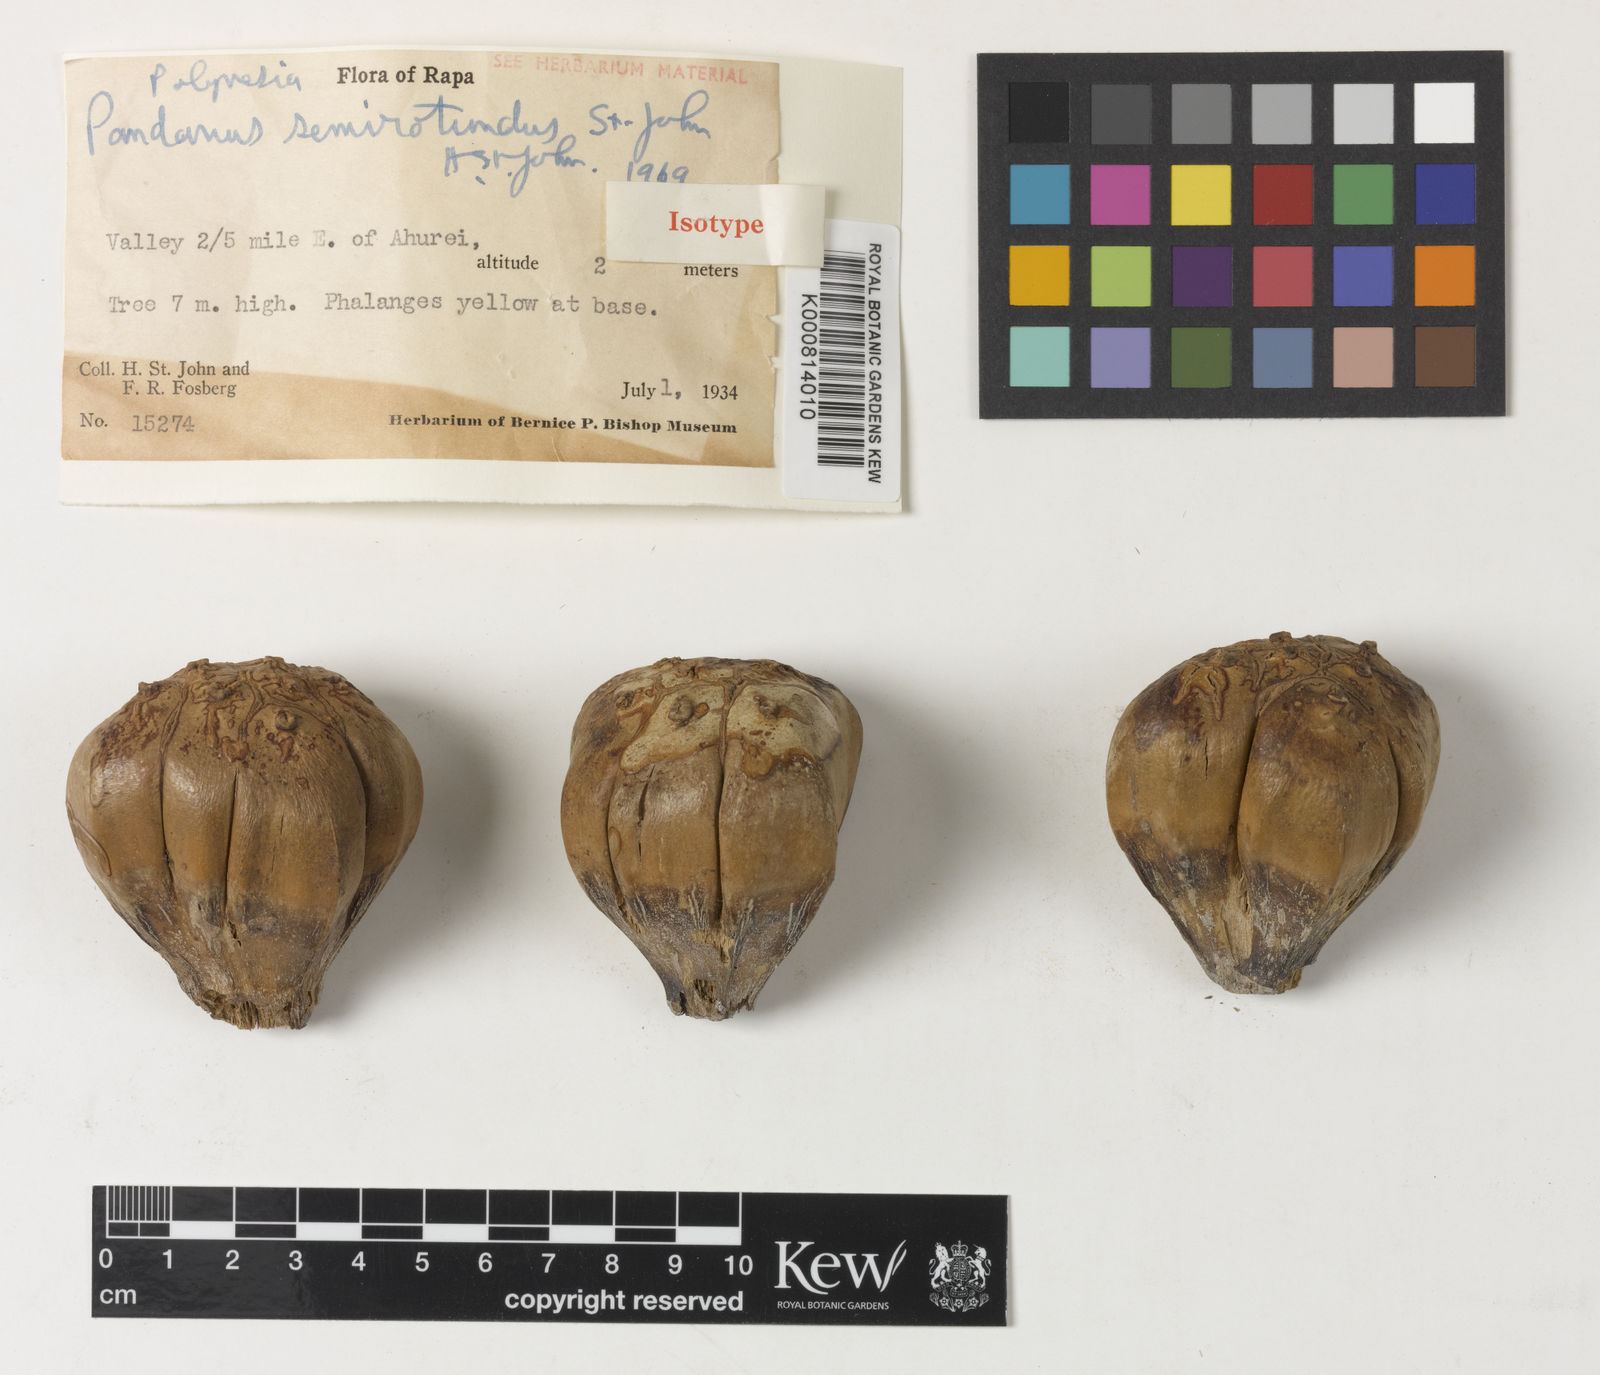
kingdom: Plantae
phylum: Tracheophyta
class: Liliopsida
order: Pandanales
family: Pandanaceae
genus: Pandanus
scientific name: Pandanus
